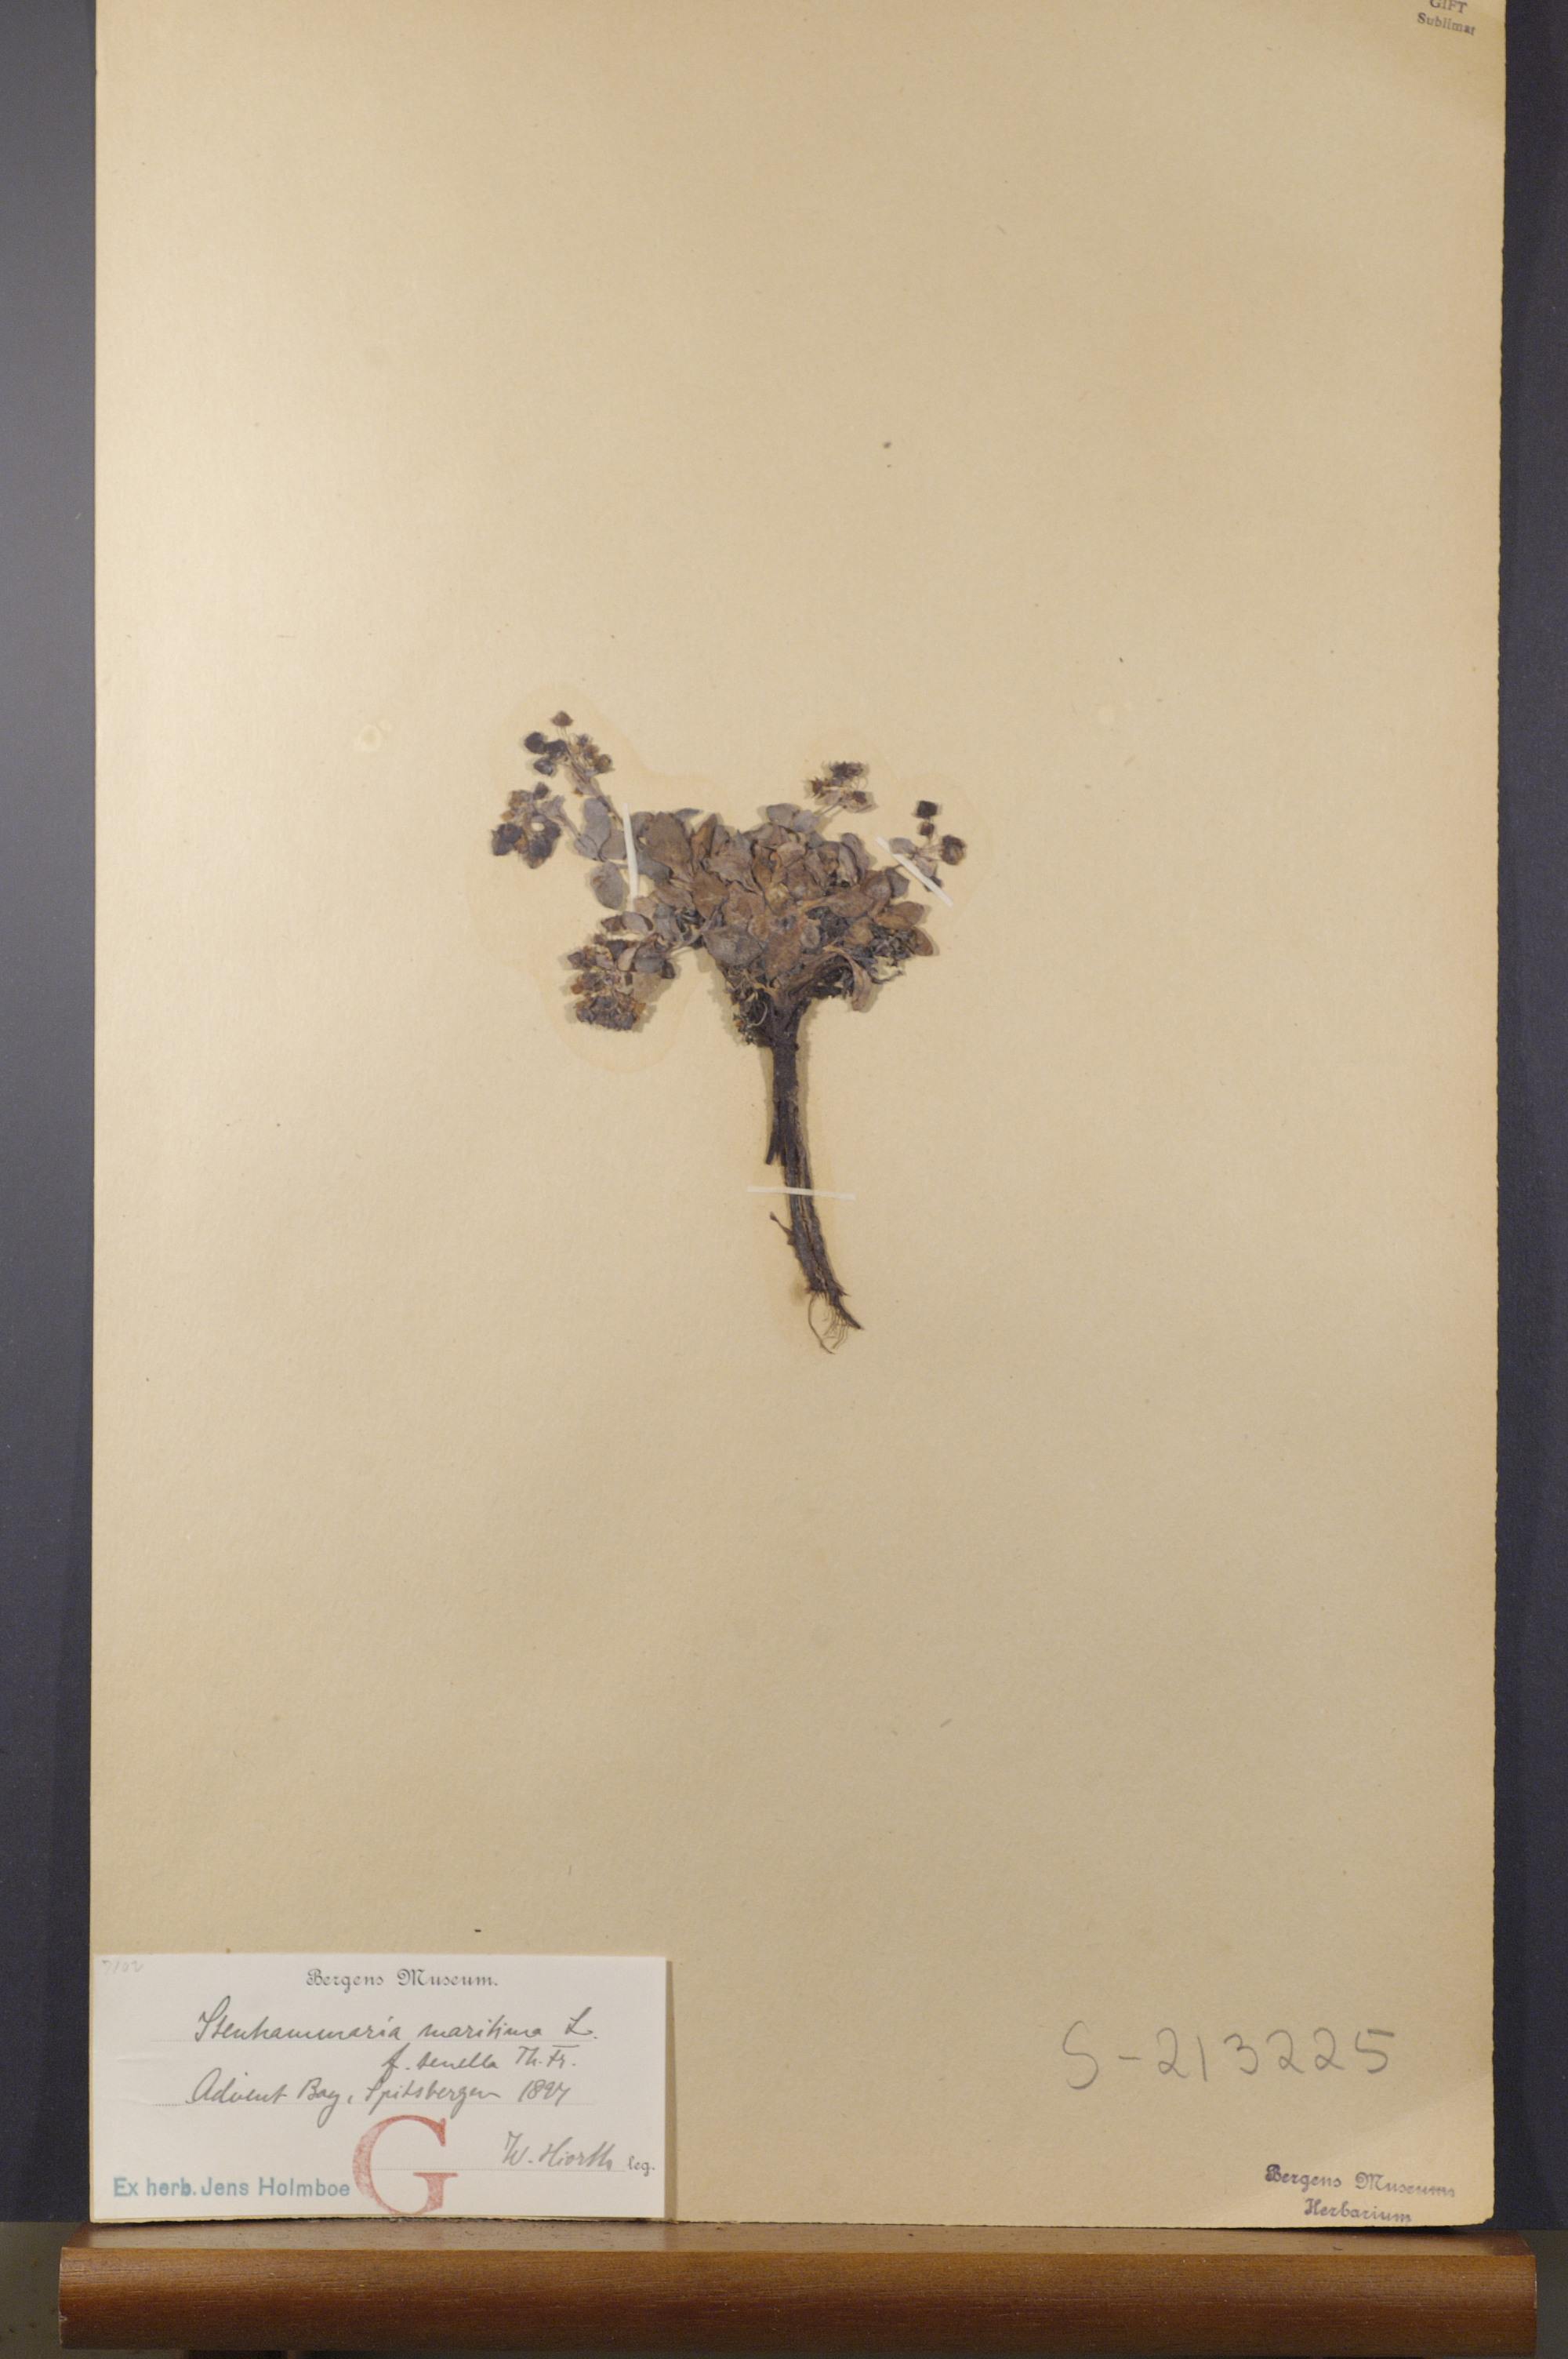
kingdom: Plantae
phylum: Tracheophyta
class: Magnoliopsida
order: Boraginales
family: Boraginaceae
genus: Mertensia
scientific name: Mertensia maritima
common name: Oysterplant
